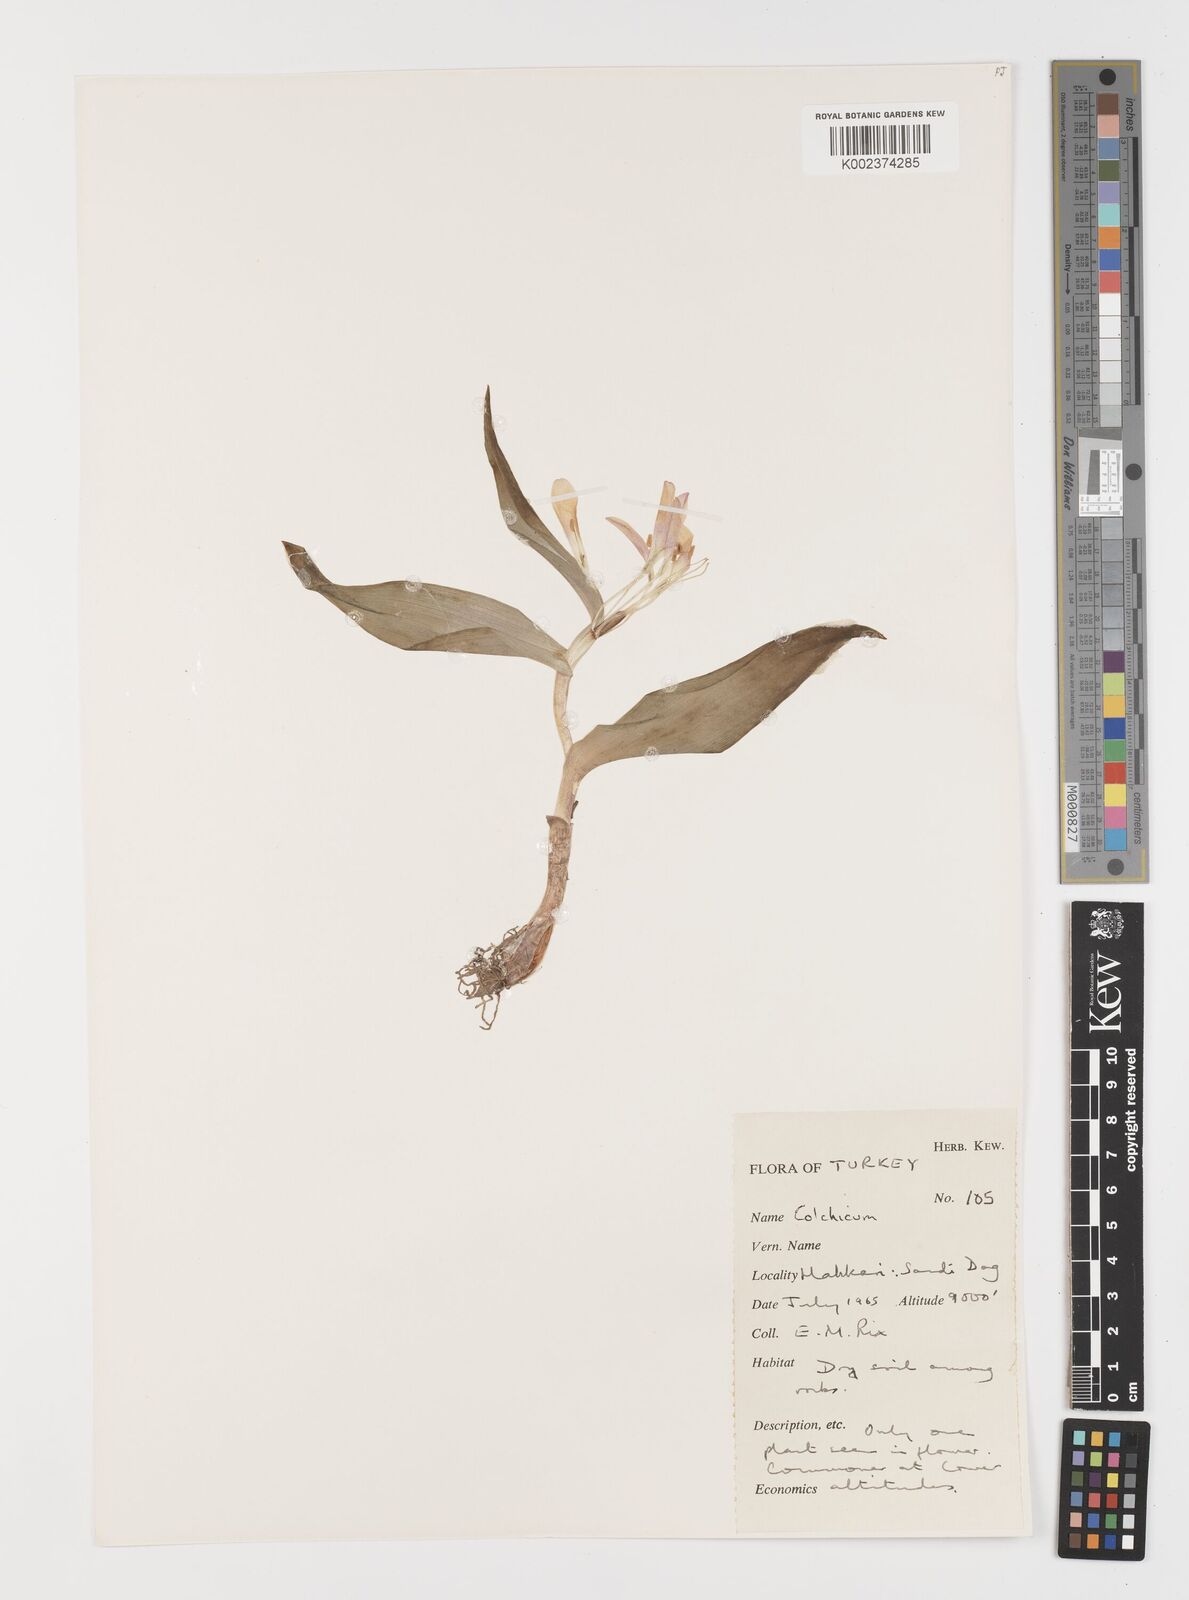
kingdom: Plantae
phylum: Tracheophyta
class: Liliopsida
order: Liliales
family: Colchicaceae
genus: Colchicum
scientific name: Colchicum
